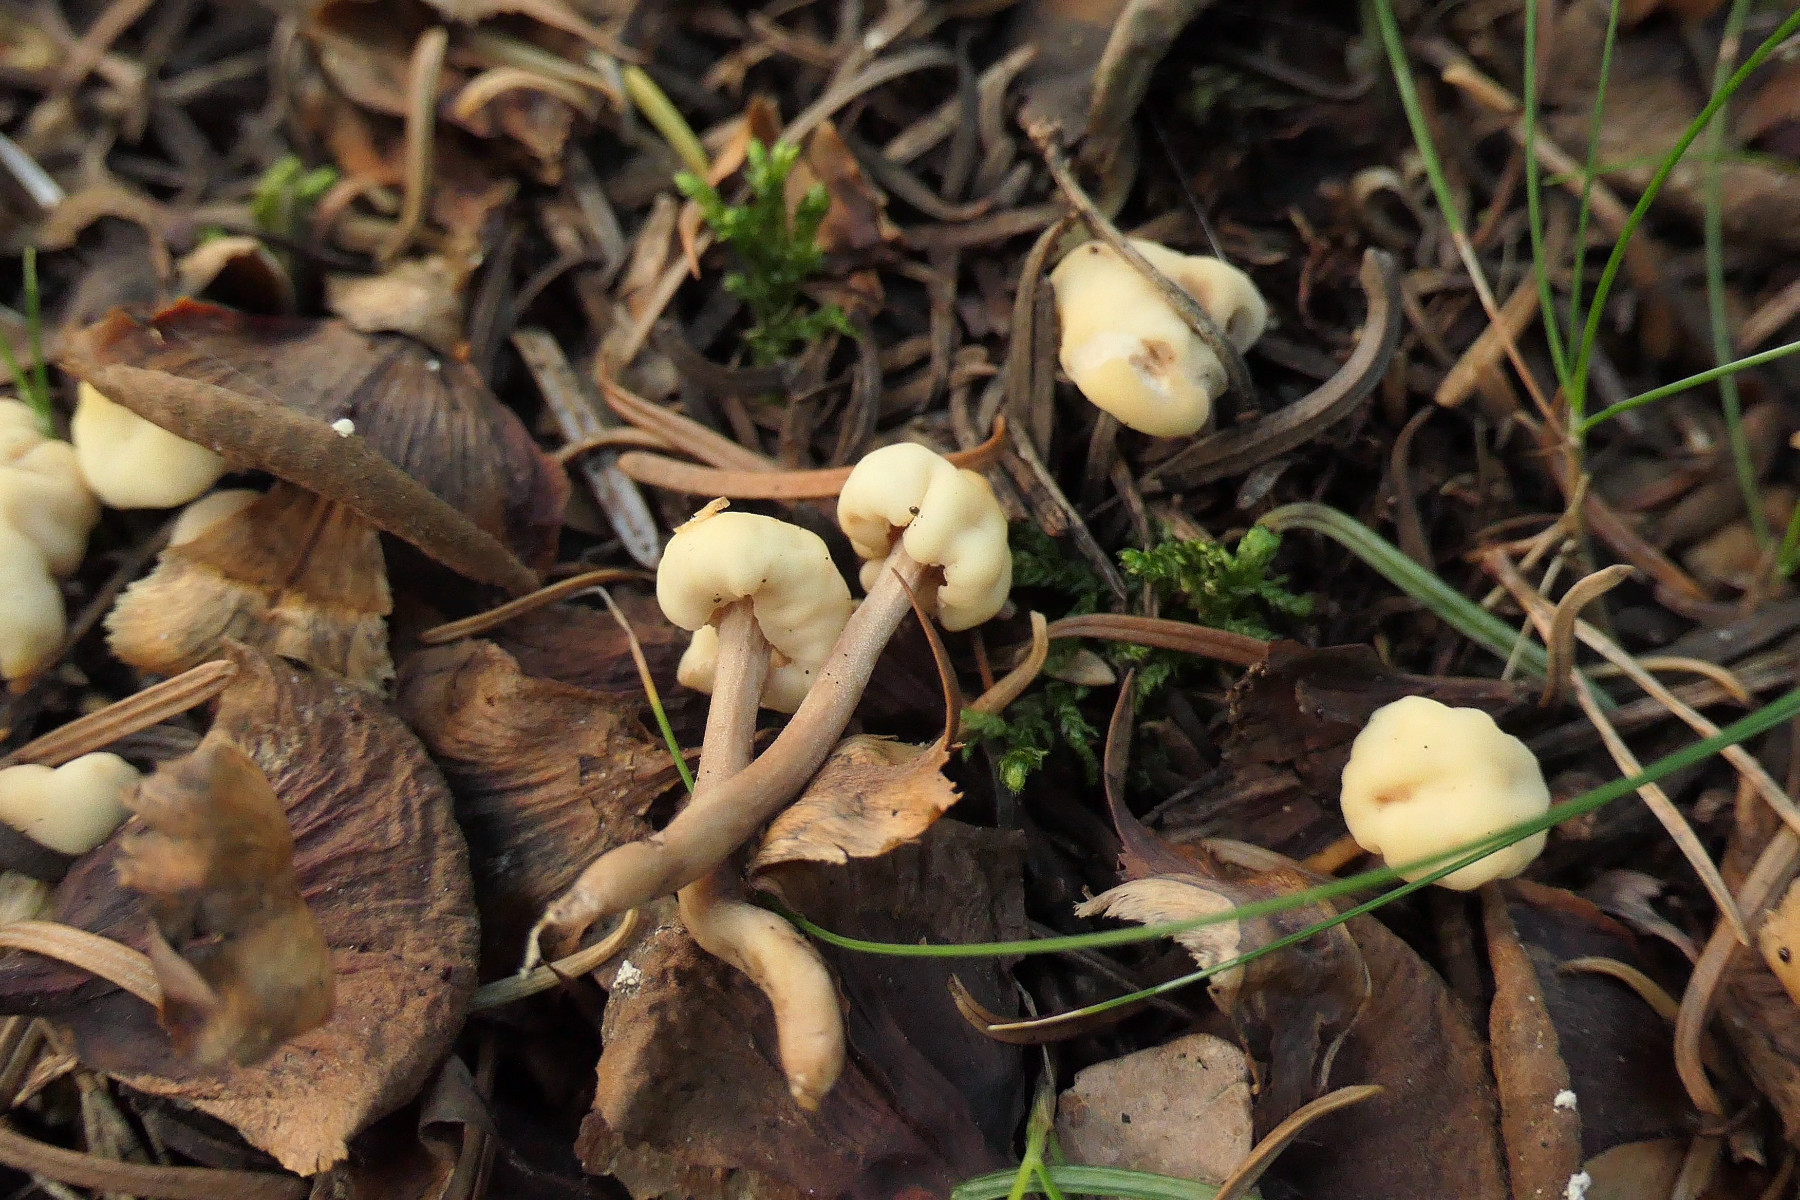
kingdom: Fungi
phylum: Ascomycota
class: Leotiomycetes
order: Rhytismatales
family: Cudoniaceae
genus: Cudonia
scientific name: Cudonia circinans
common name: hekserings-hjelmmorkel
